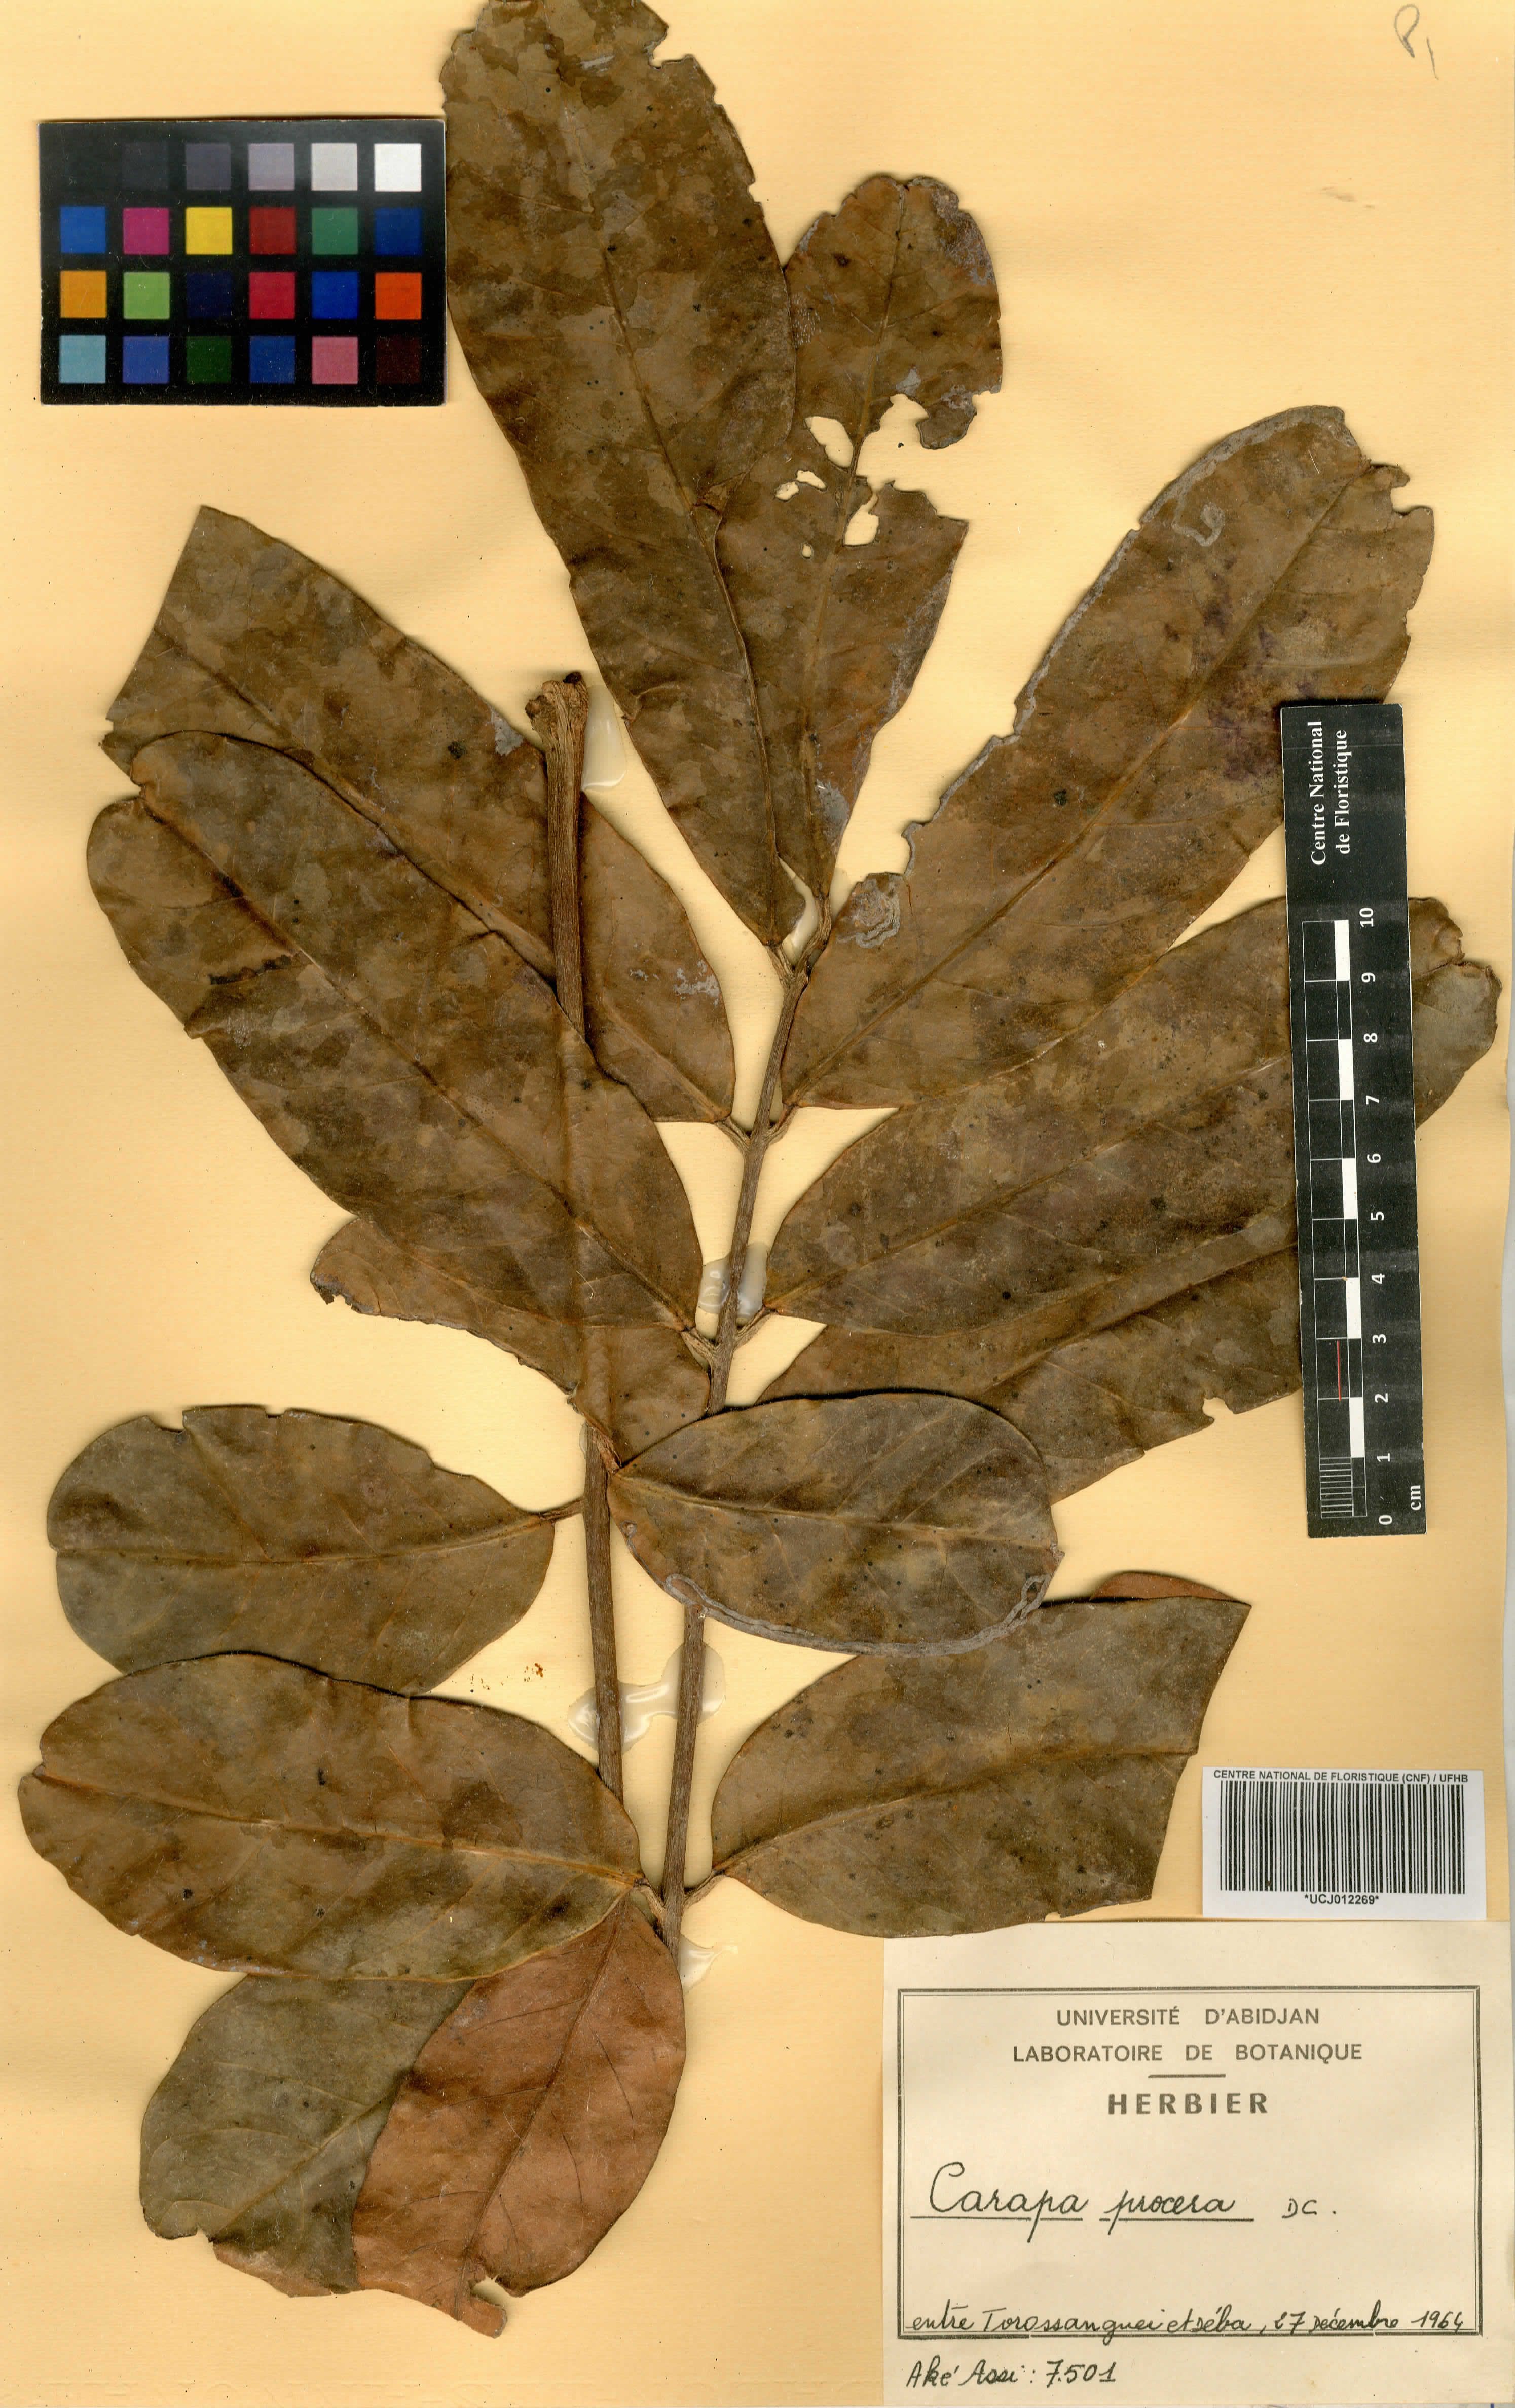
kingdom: Plantae
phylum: Tracheophyta
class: Magnoliopsida
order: Sapindales
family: Meliaceae
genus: Carapa
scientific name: Carapa procera
